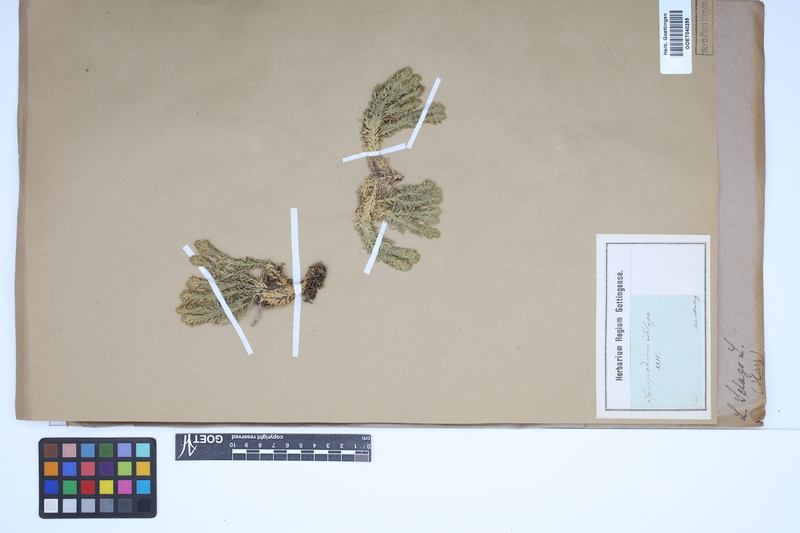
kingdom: Plantae
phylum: Tracheophyta
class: Lycopodiopsida
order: Lycopodiales
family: Lycopodiaceae
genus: Huperzia
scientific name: Huperzia selago
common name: Northern firmoss
